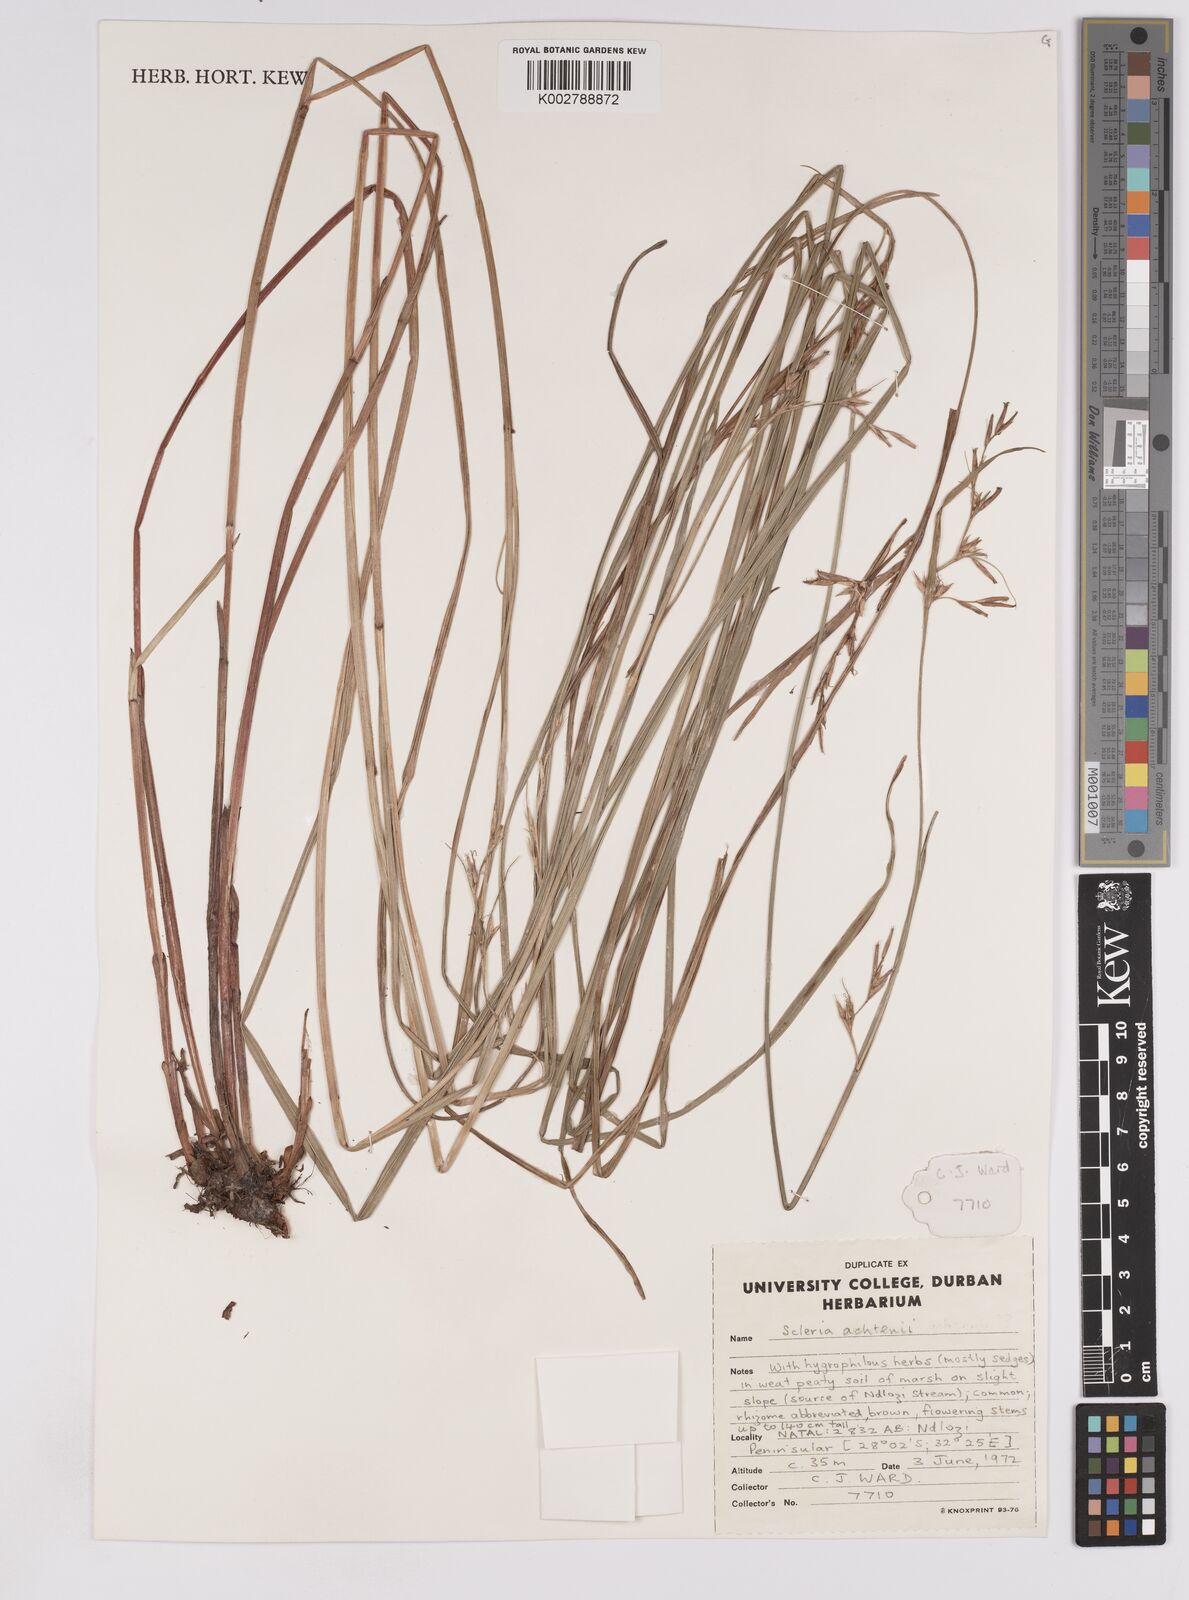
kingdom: Plantae
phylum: Tracheophyta
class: Liliopsida
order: Poales
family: Cyperaceae
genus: Scleria
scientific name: Scleria achtenii
